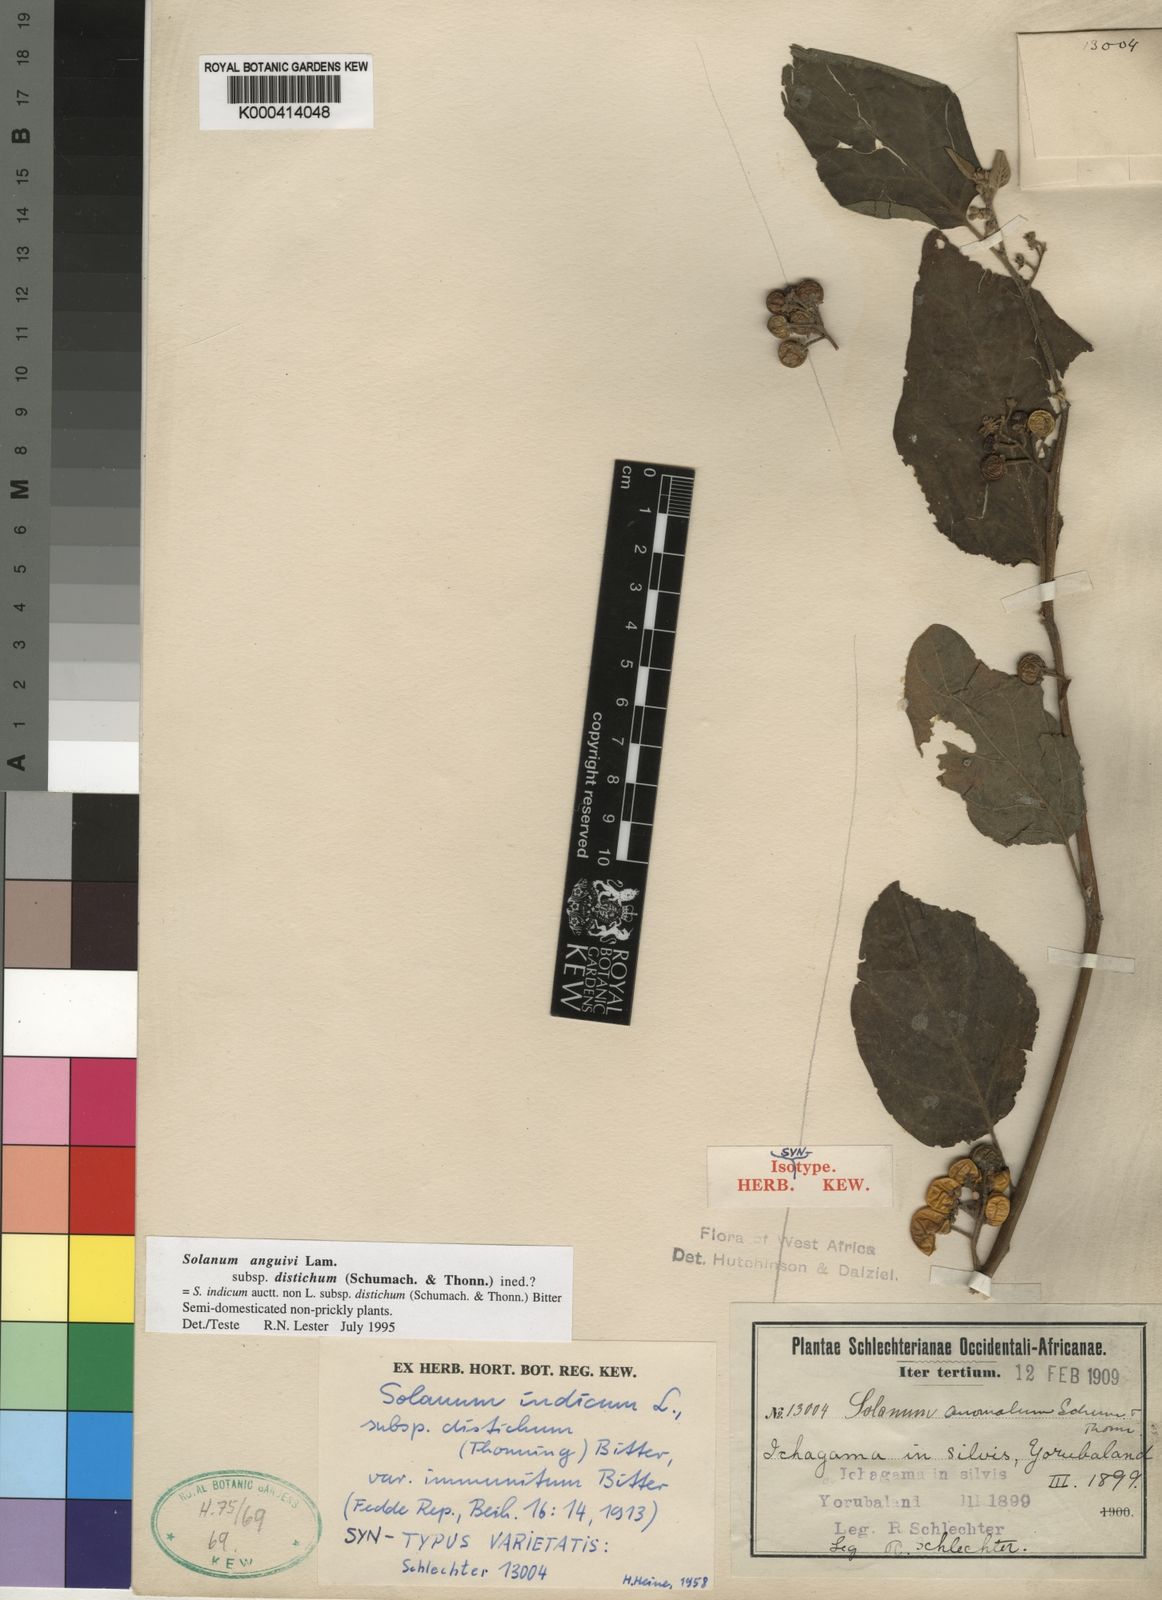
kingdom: Plantae
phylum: Tracheophyta
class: Magnoliopsida
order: Solanales
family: Solanaceae
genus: Solanum
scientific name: Solanum anguivi
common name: Forest bitterberry
